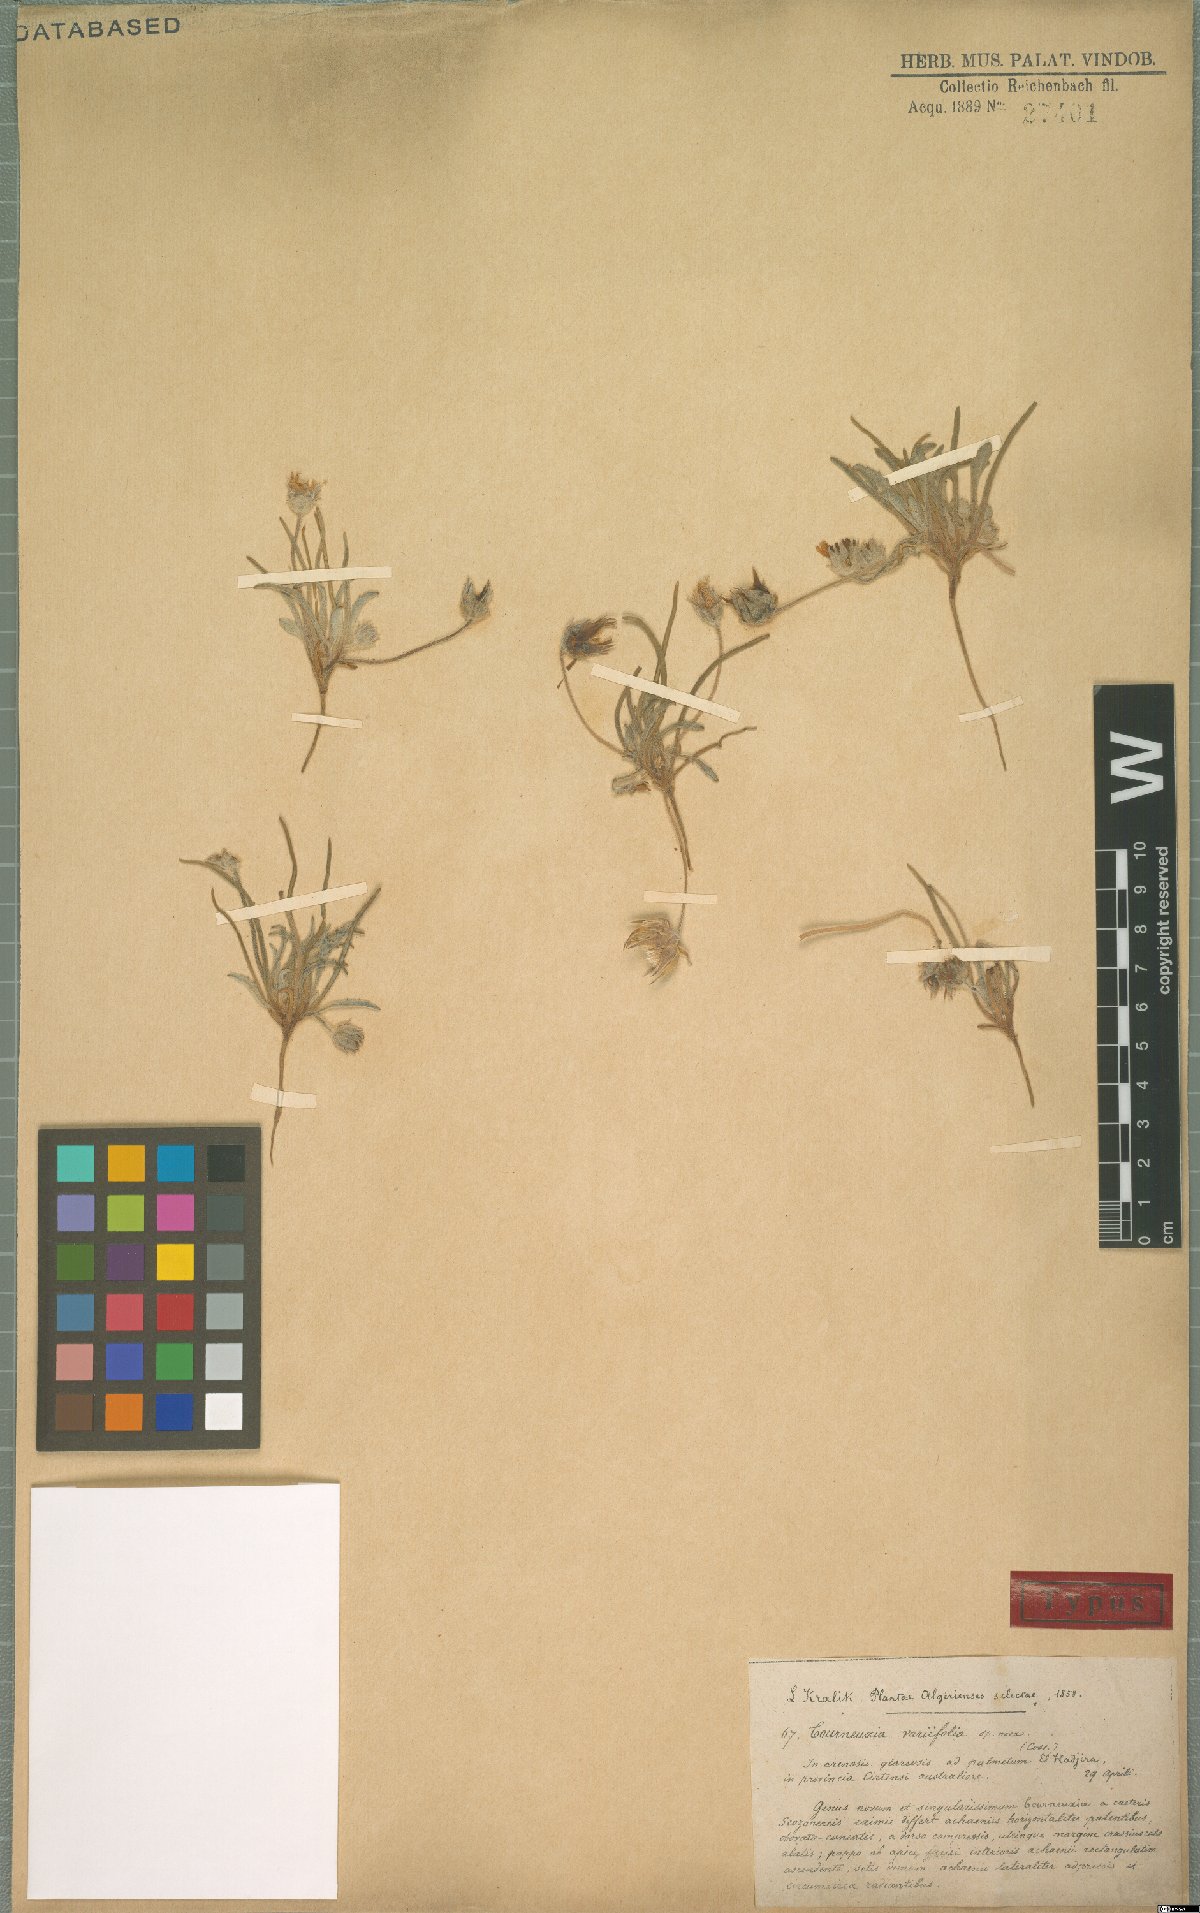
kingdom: Plantae
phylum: Tracheophyta
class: Magnoliopsida
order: Asterales
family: Asteraceae
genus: Tourneuxia
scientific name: Tourneuxia variifolia
